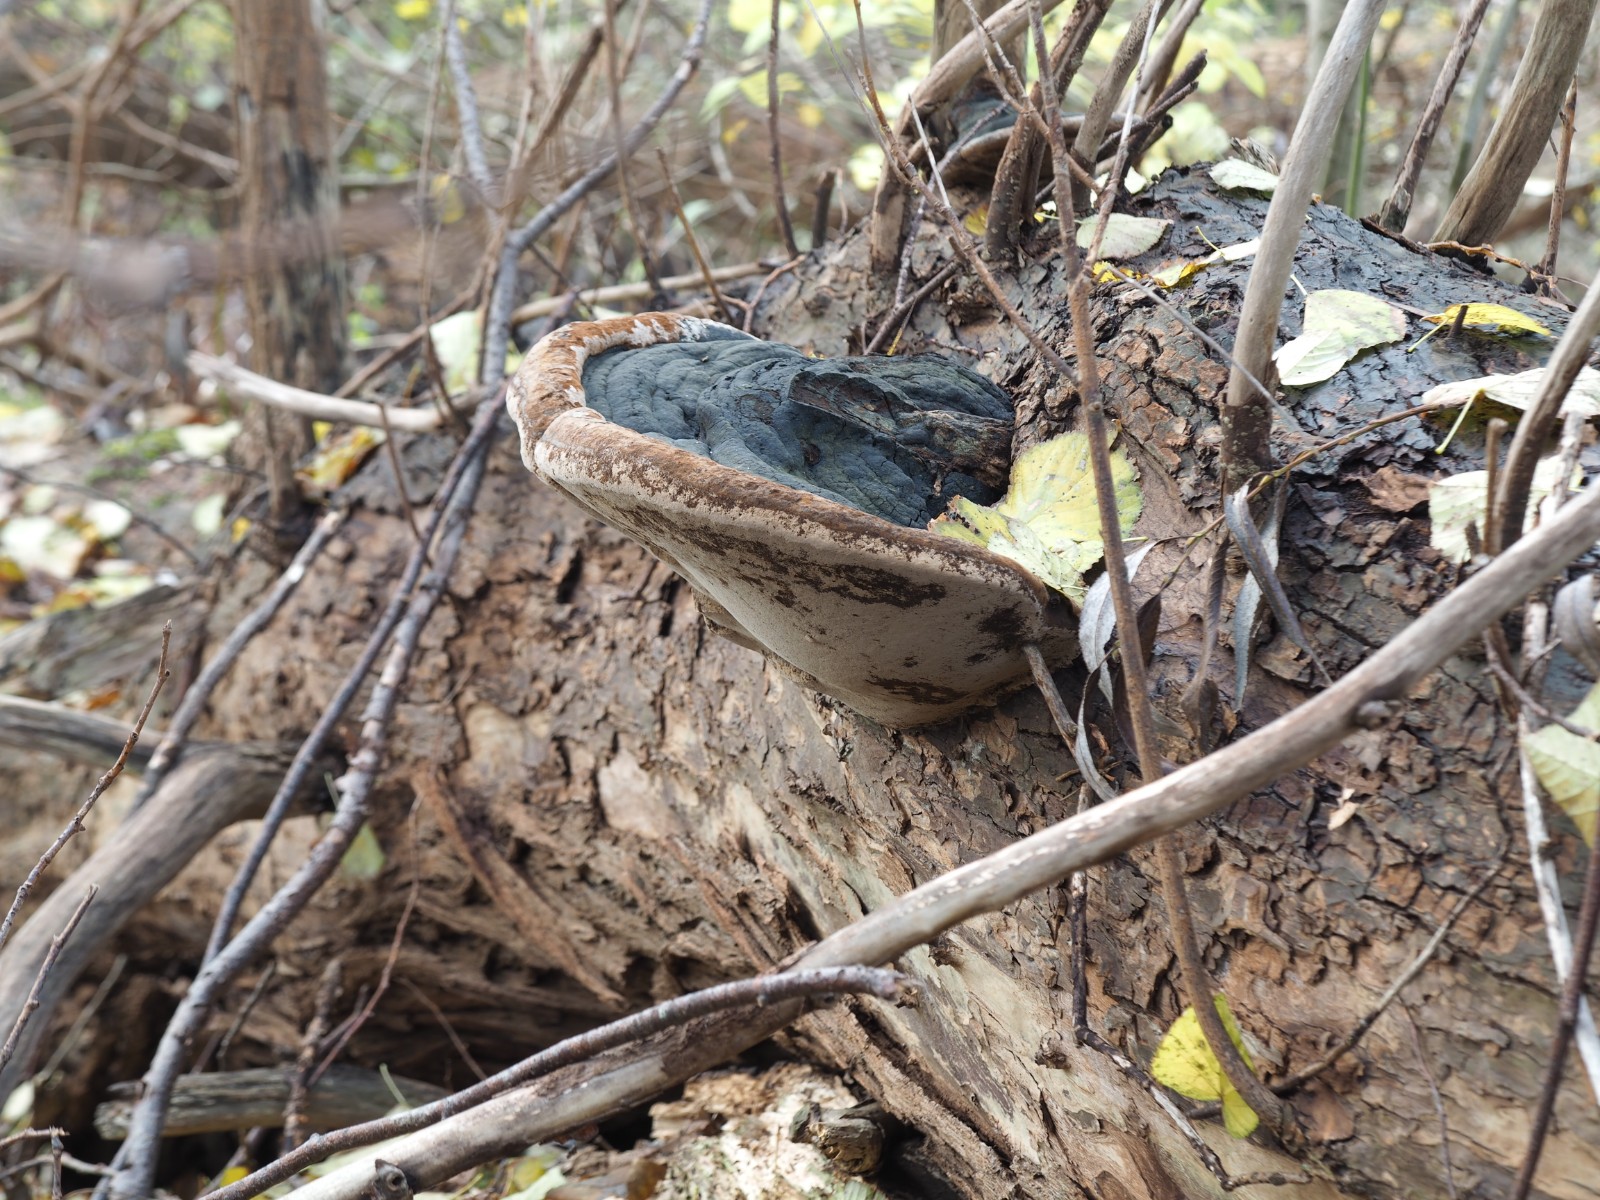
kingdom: Fungi
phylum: Basidiomycota
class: Agaricomycetes
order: Hymenochaetales
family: Hymenochaetaceae
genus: Phellinus
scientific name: Phellinus igniarius
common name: almindelig ildporesvamp
